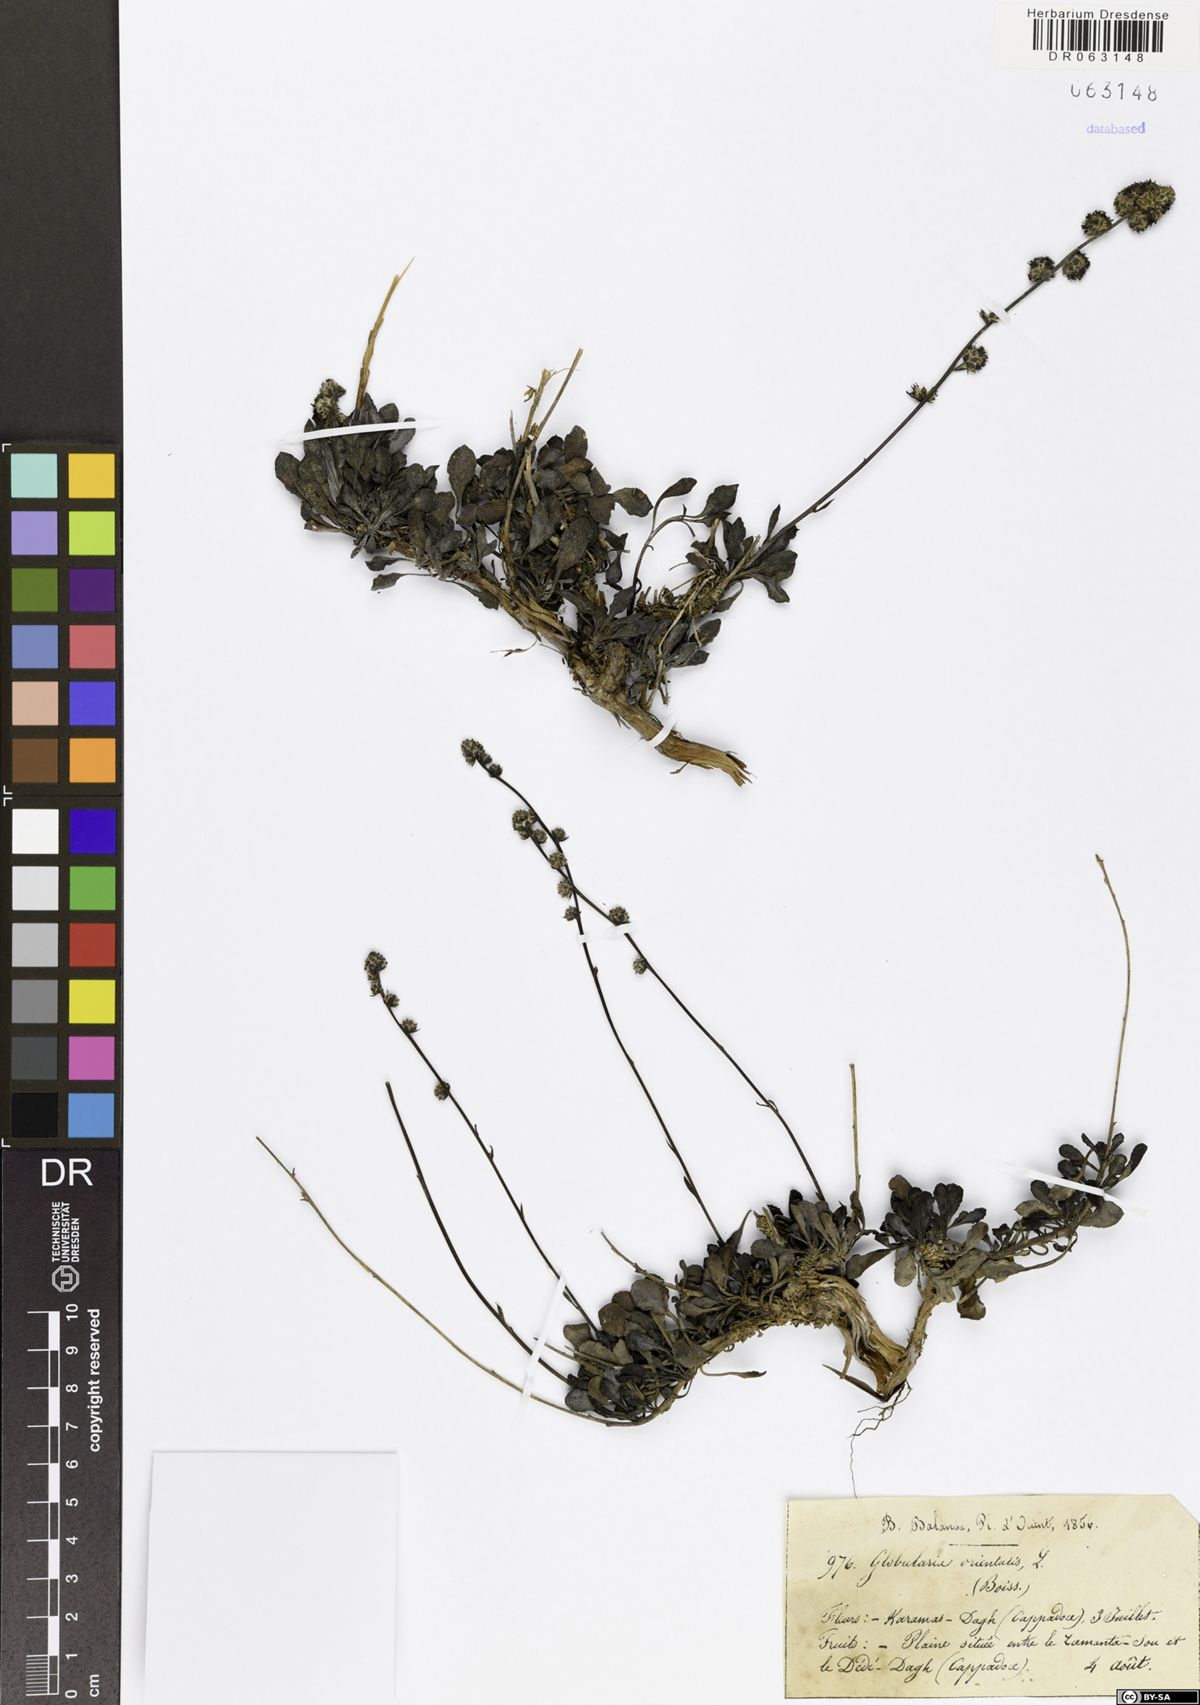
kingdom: Plantae
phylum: Tracheophyta
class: Magnoliopsida
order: Lamiales
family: Plantaginaceae
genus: Globularia
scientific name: Globularia orientalis
